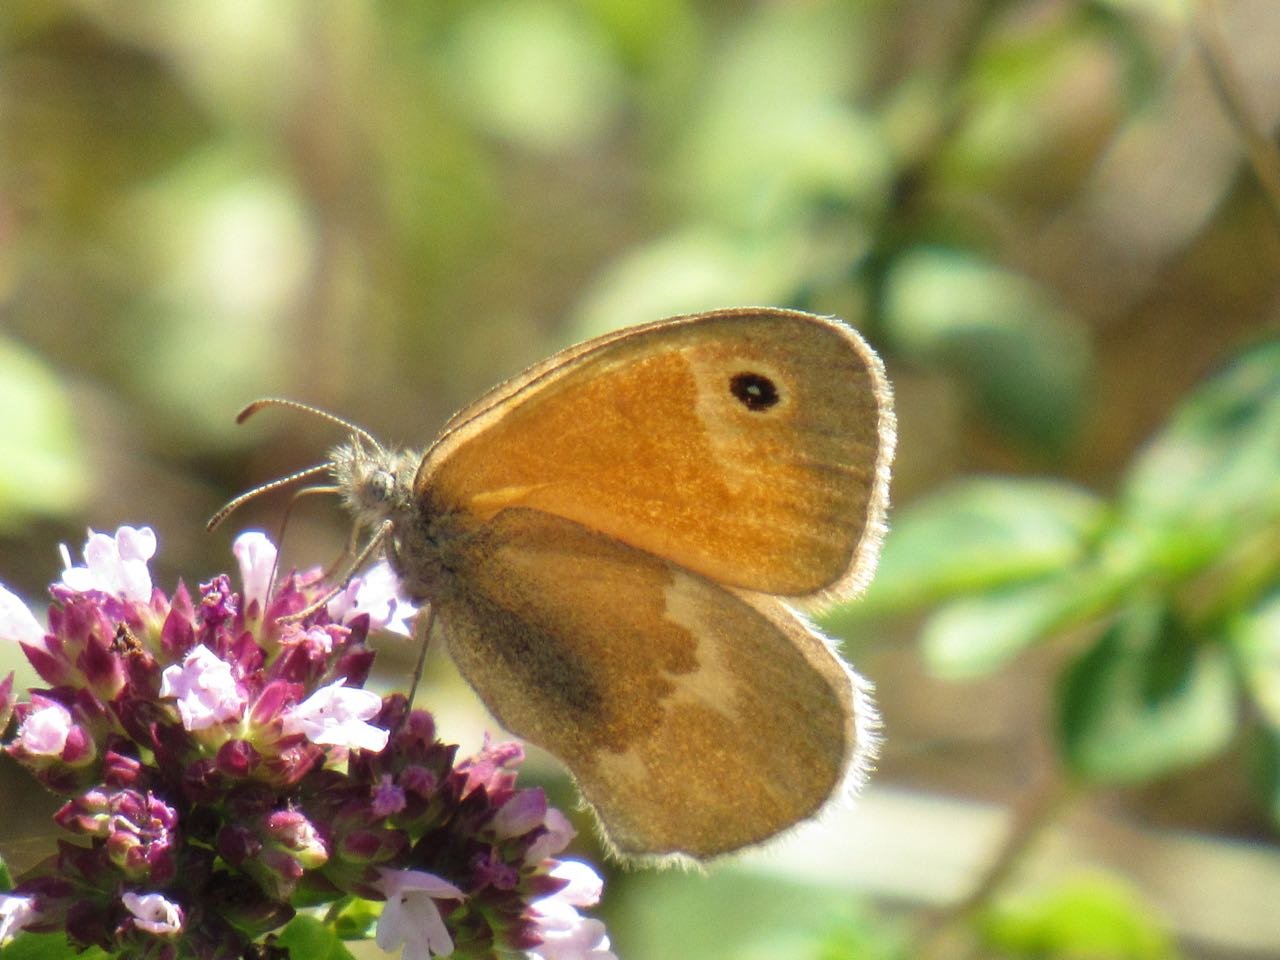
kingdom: Animalia
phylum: Arthropoda
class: Insecta
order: Lepidoptera
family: Nymphalidae
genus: Coenonympha
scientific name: Coenonympha tullia
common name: Large Heath
